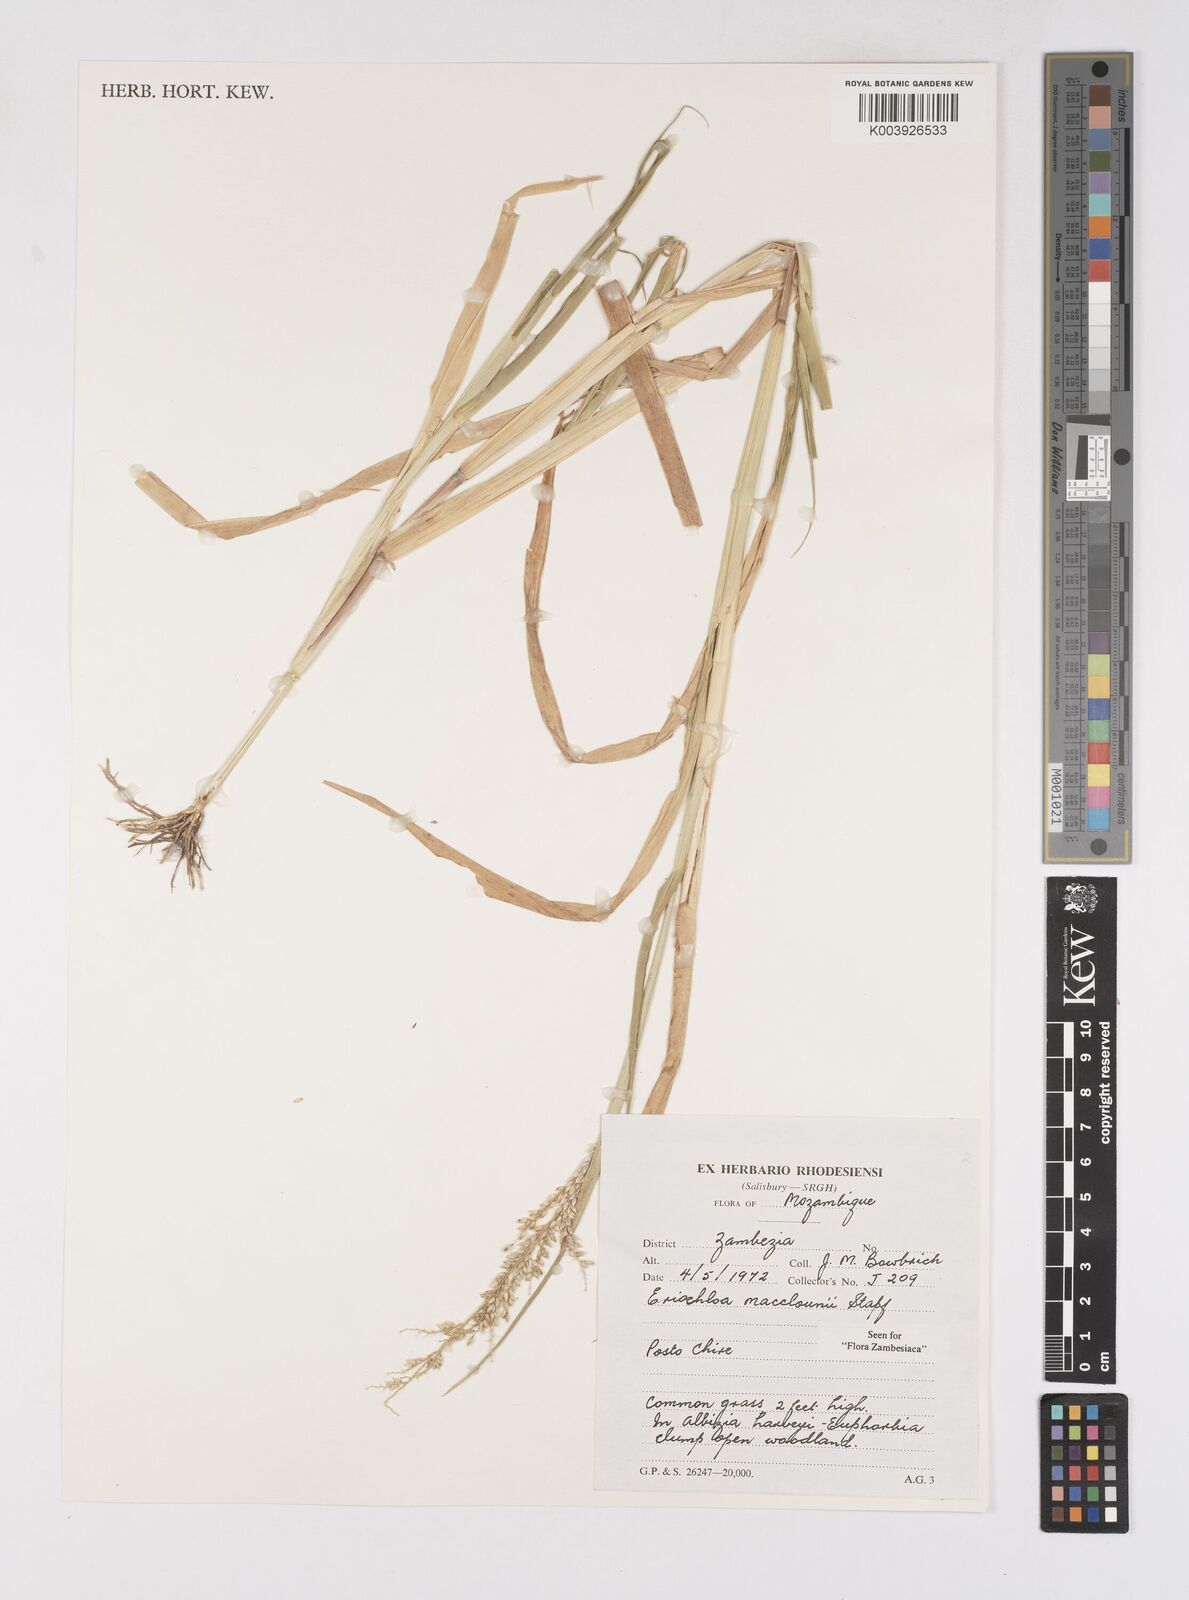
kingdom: Plantae
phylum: Tracheophyta
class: Liliopsida
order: Poales
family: Poaceae
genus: Eriochloa
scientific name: Eriochloa macclounii
